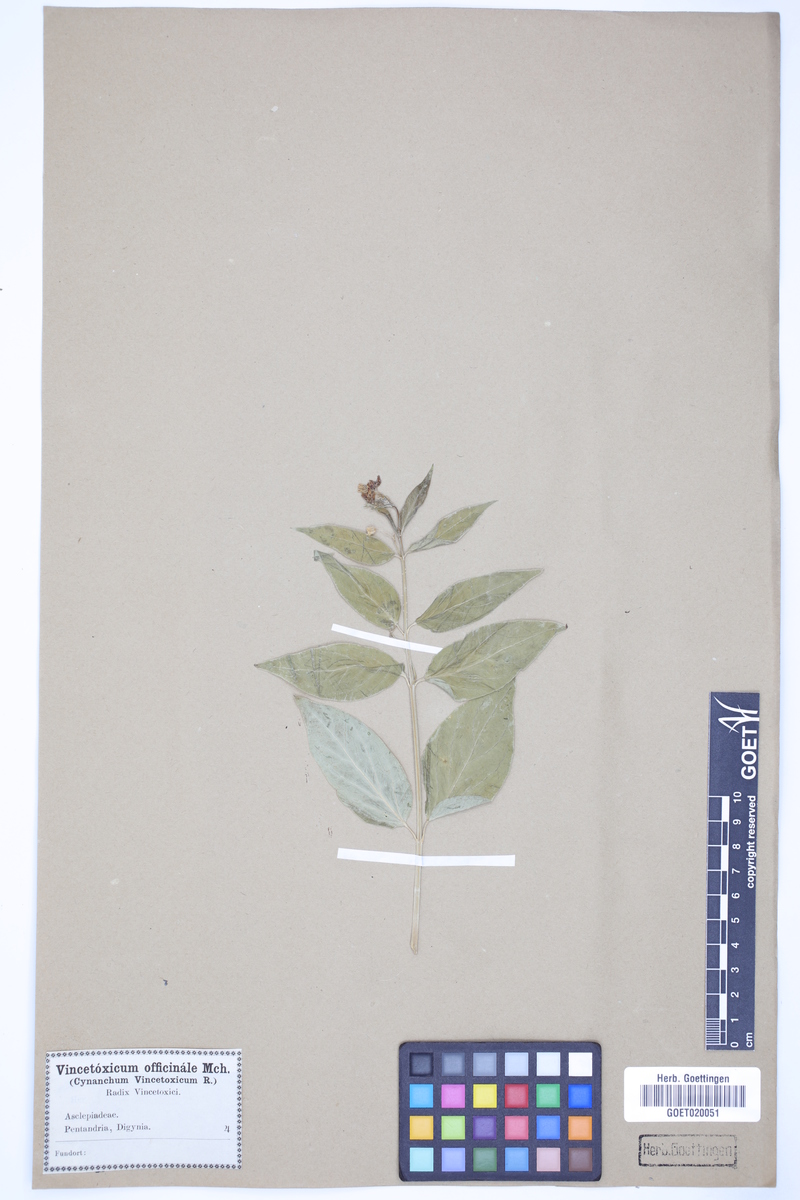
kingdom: Plantae
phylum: Tracheophyta
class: Magnoliopsida
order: Gentianales
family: Apocynaceae
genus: Vincetoxicum
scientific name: Vincetoxicum hirundinaria
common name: White swallowwort
